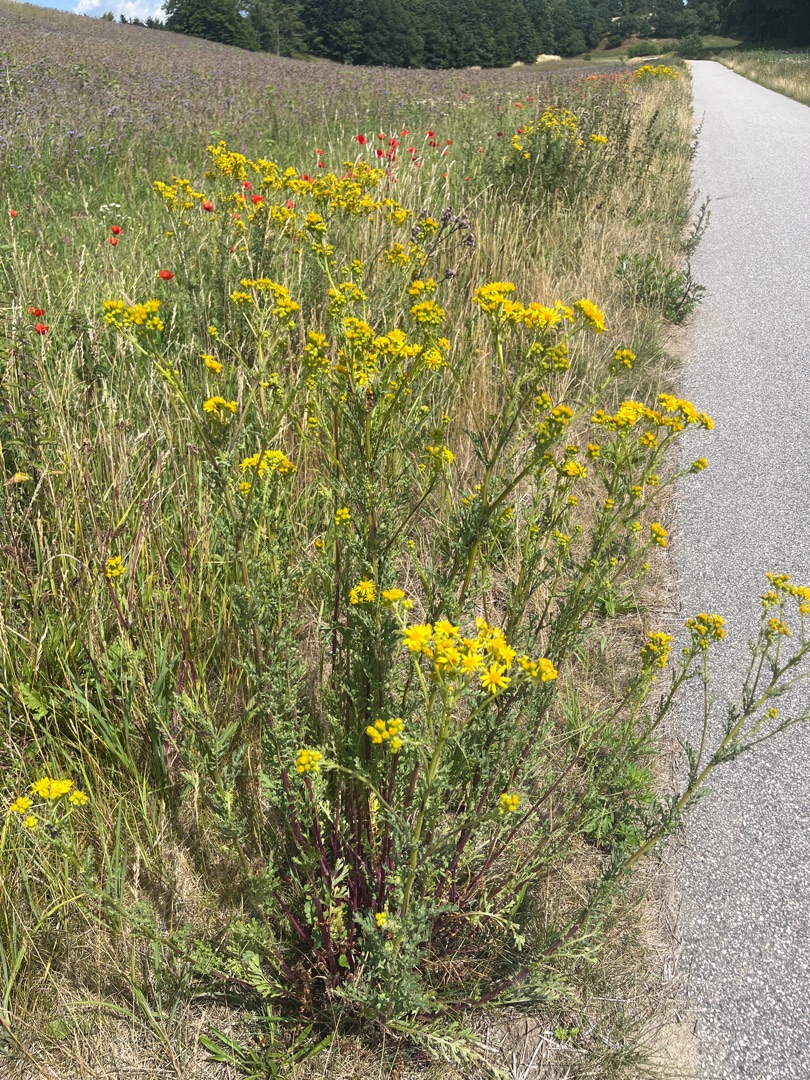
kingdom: Plantae
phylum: Tracheophyta
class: Magnoliopsida
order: Asterales
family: Asteraceae
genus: Jacobaea
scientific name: Jacobaea vulgaris
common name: Eng-brandbæger
